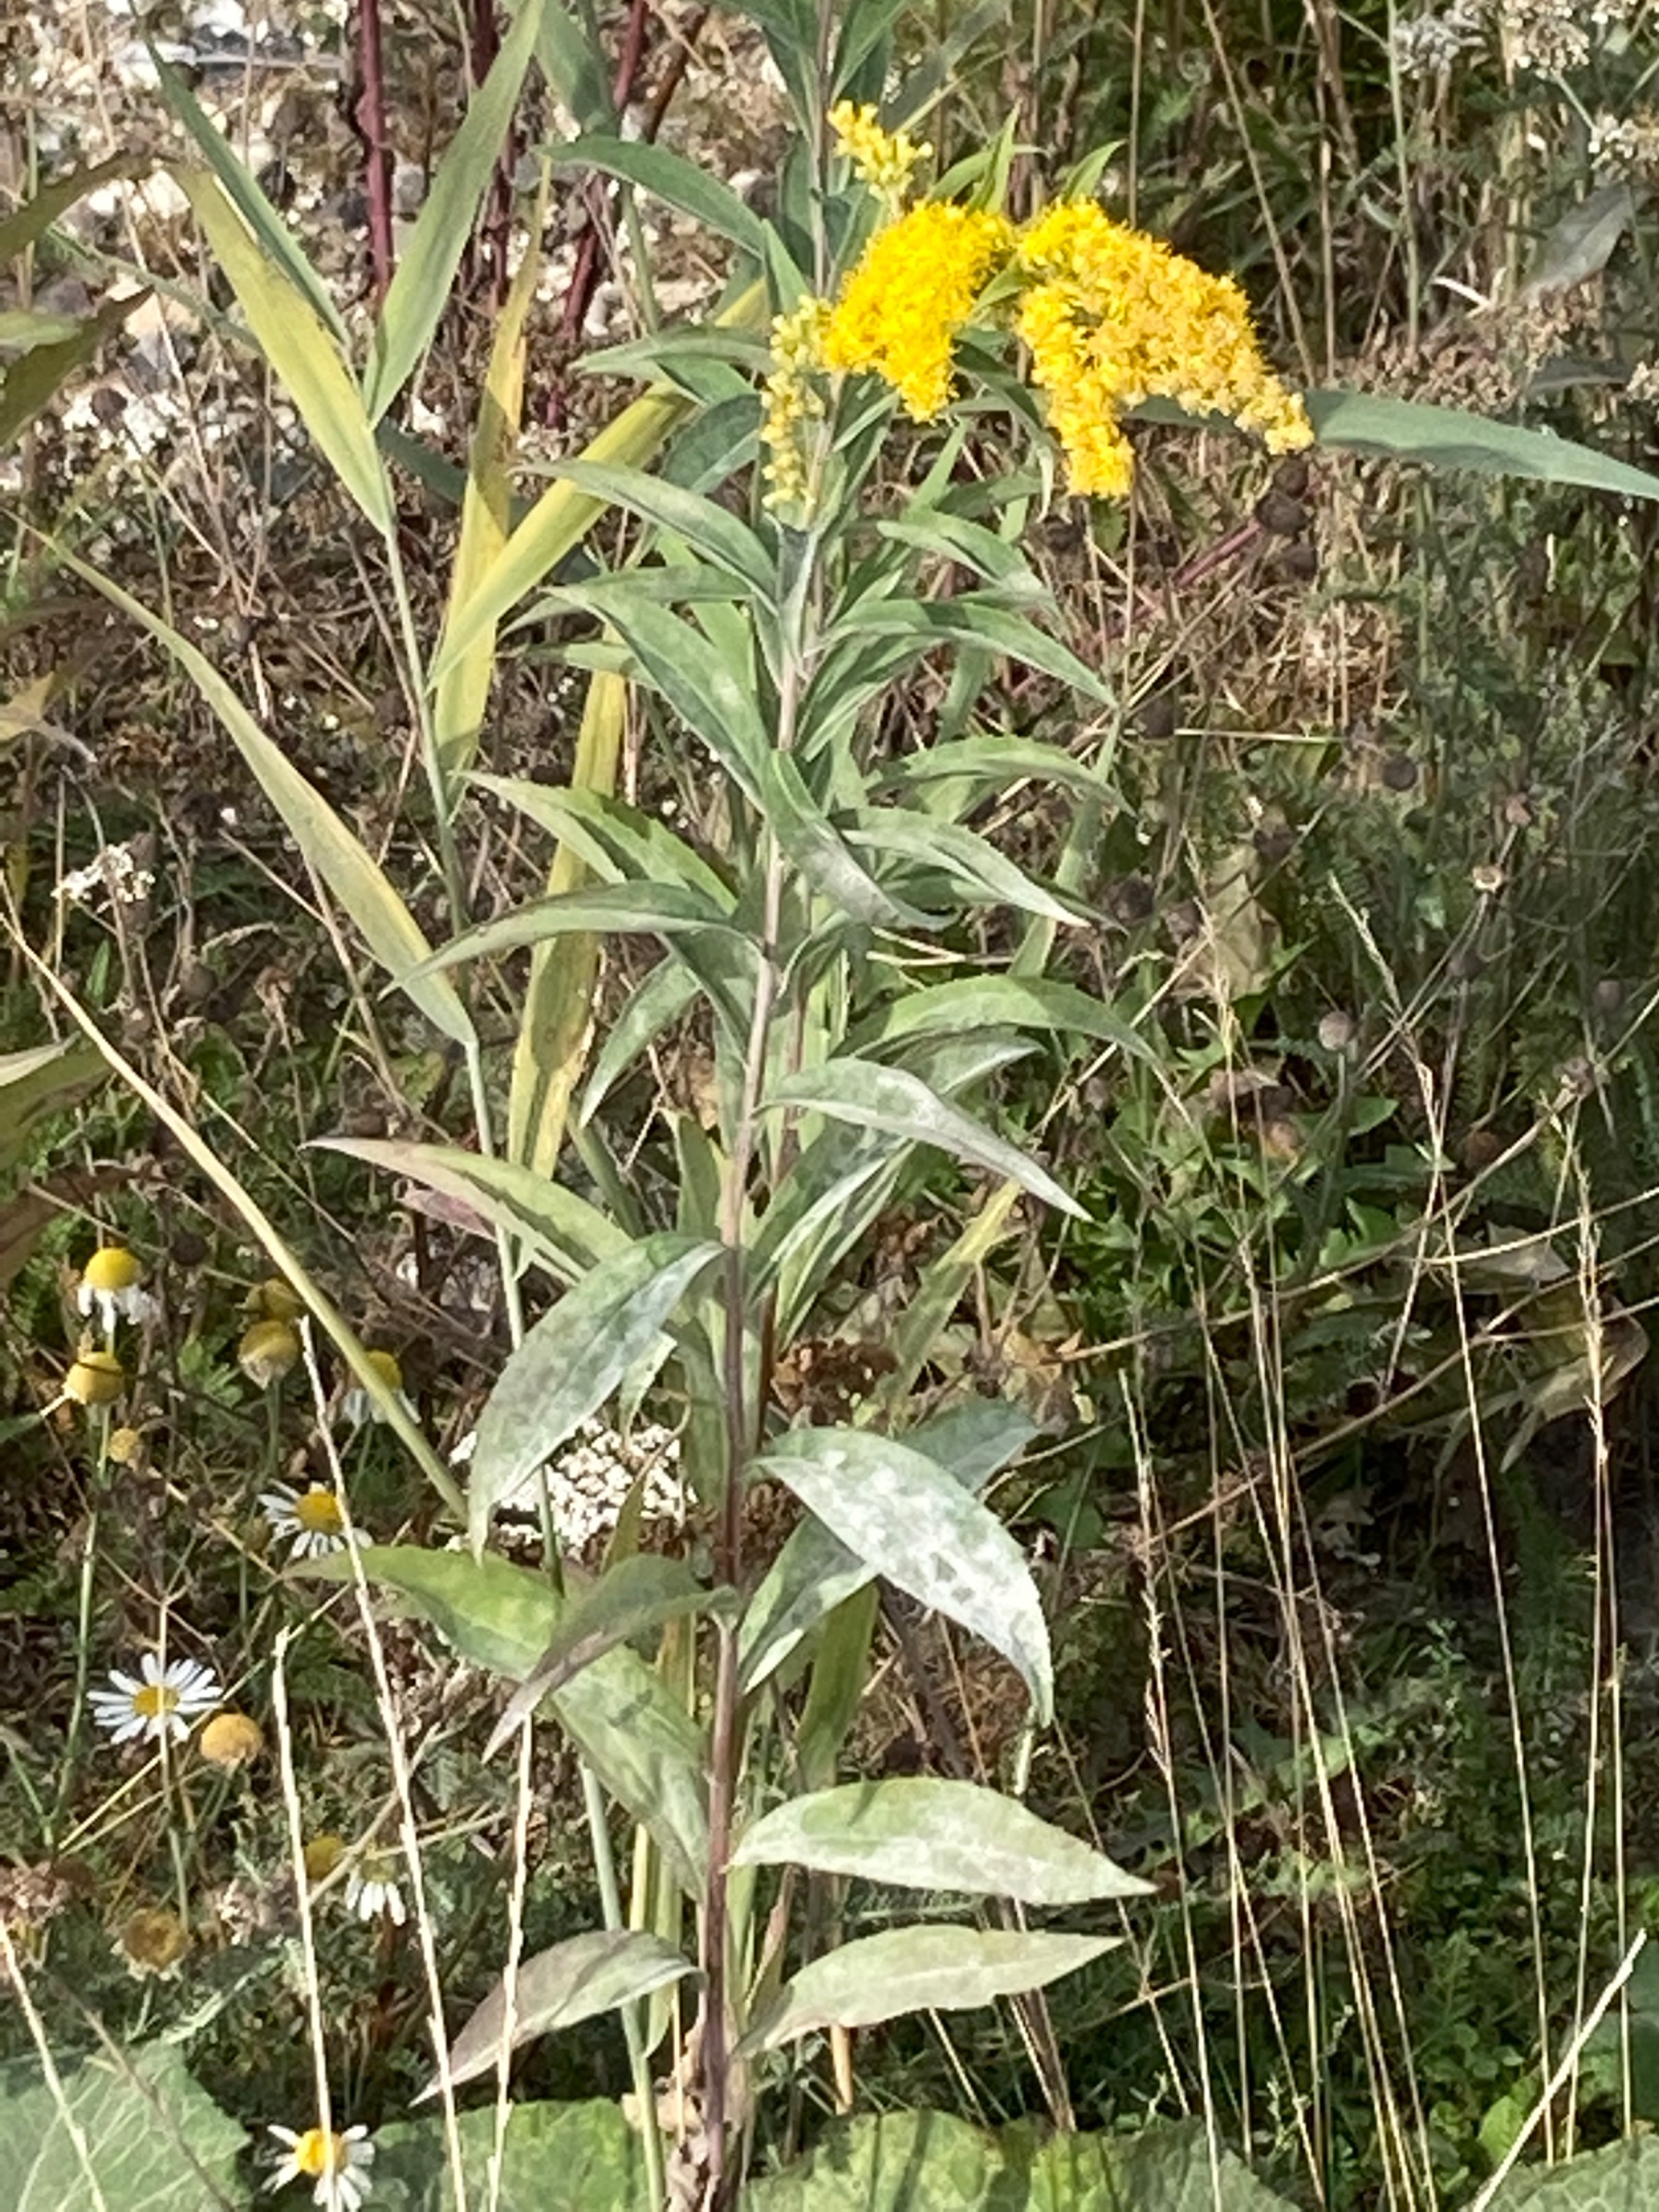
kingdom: Plantae
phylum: Tracheophyta
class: Magnoliopsida
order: Asterales
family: Asteraceae
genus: Solidago
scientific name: Solidago
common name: Gyldenrisslægten
